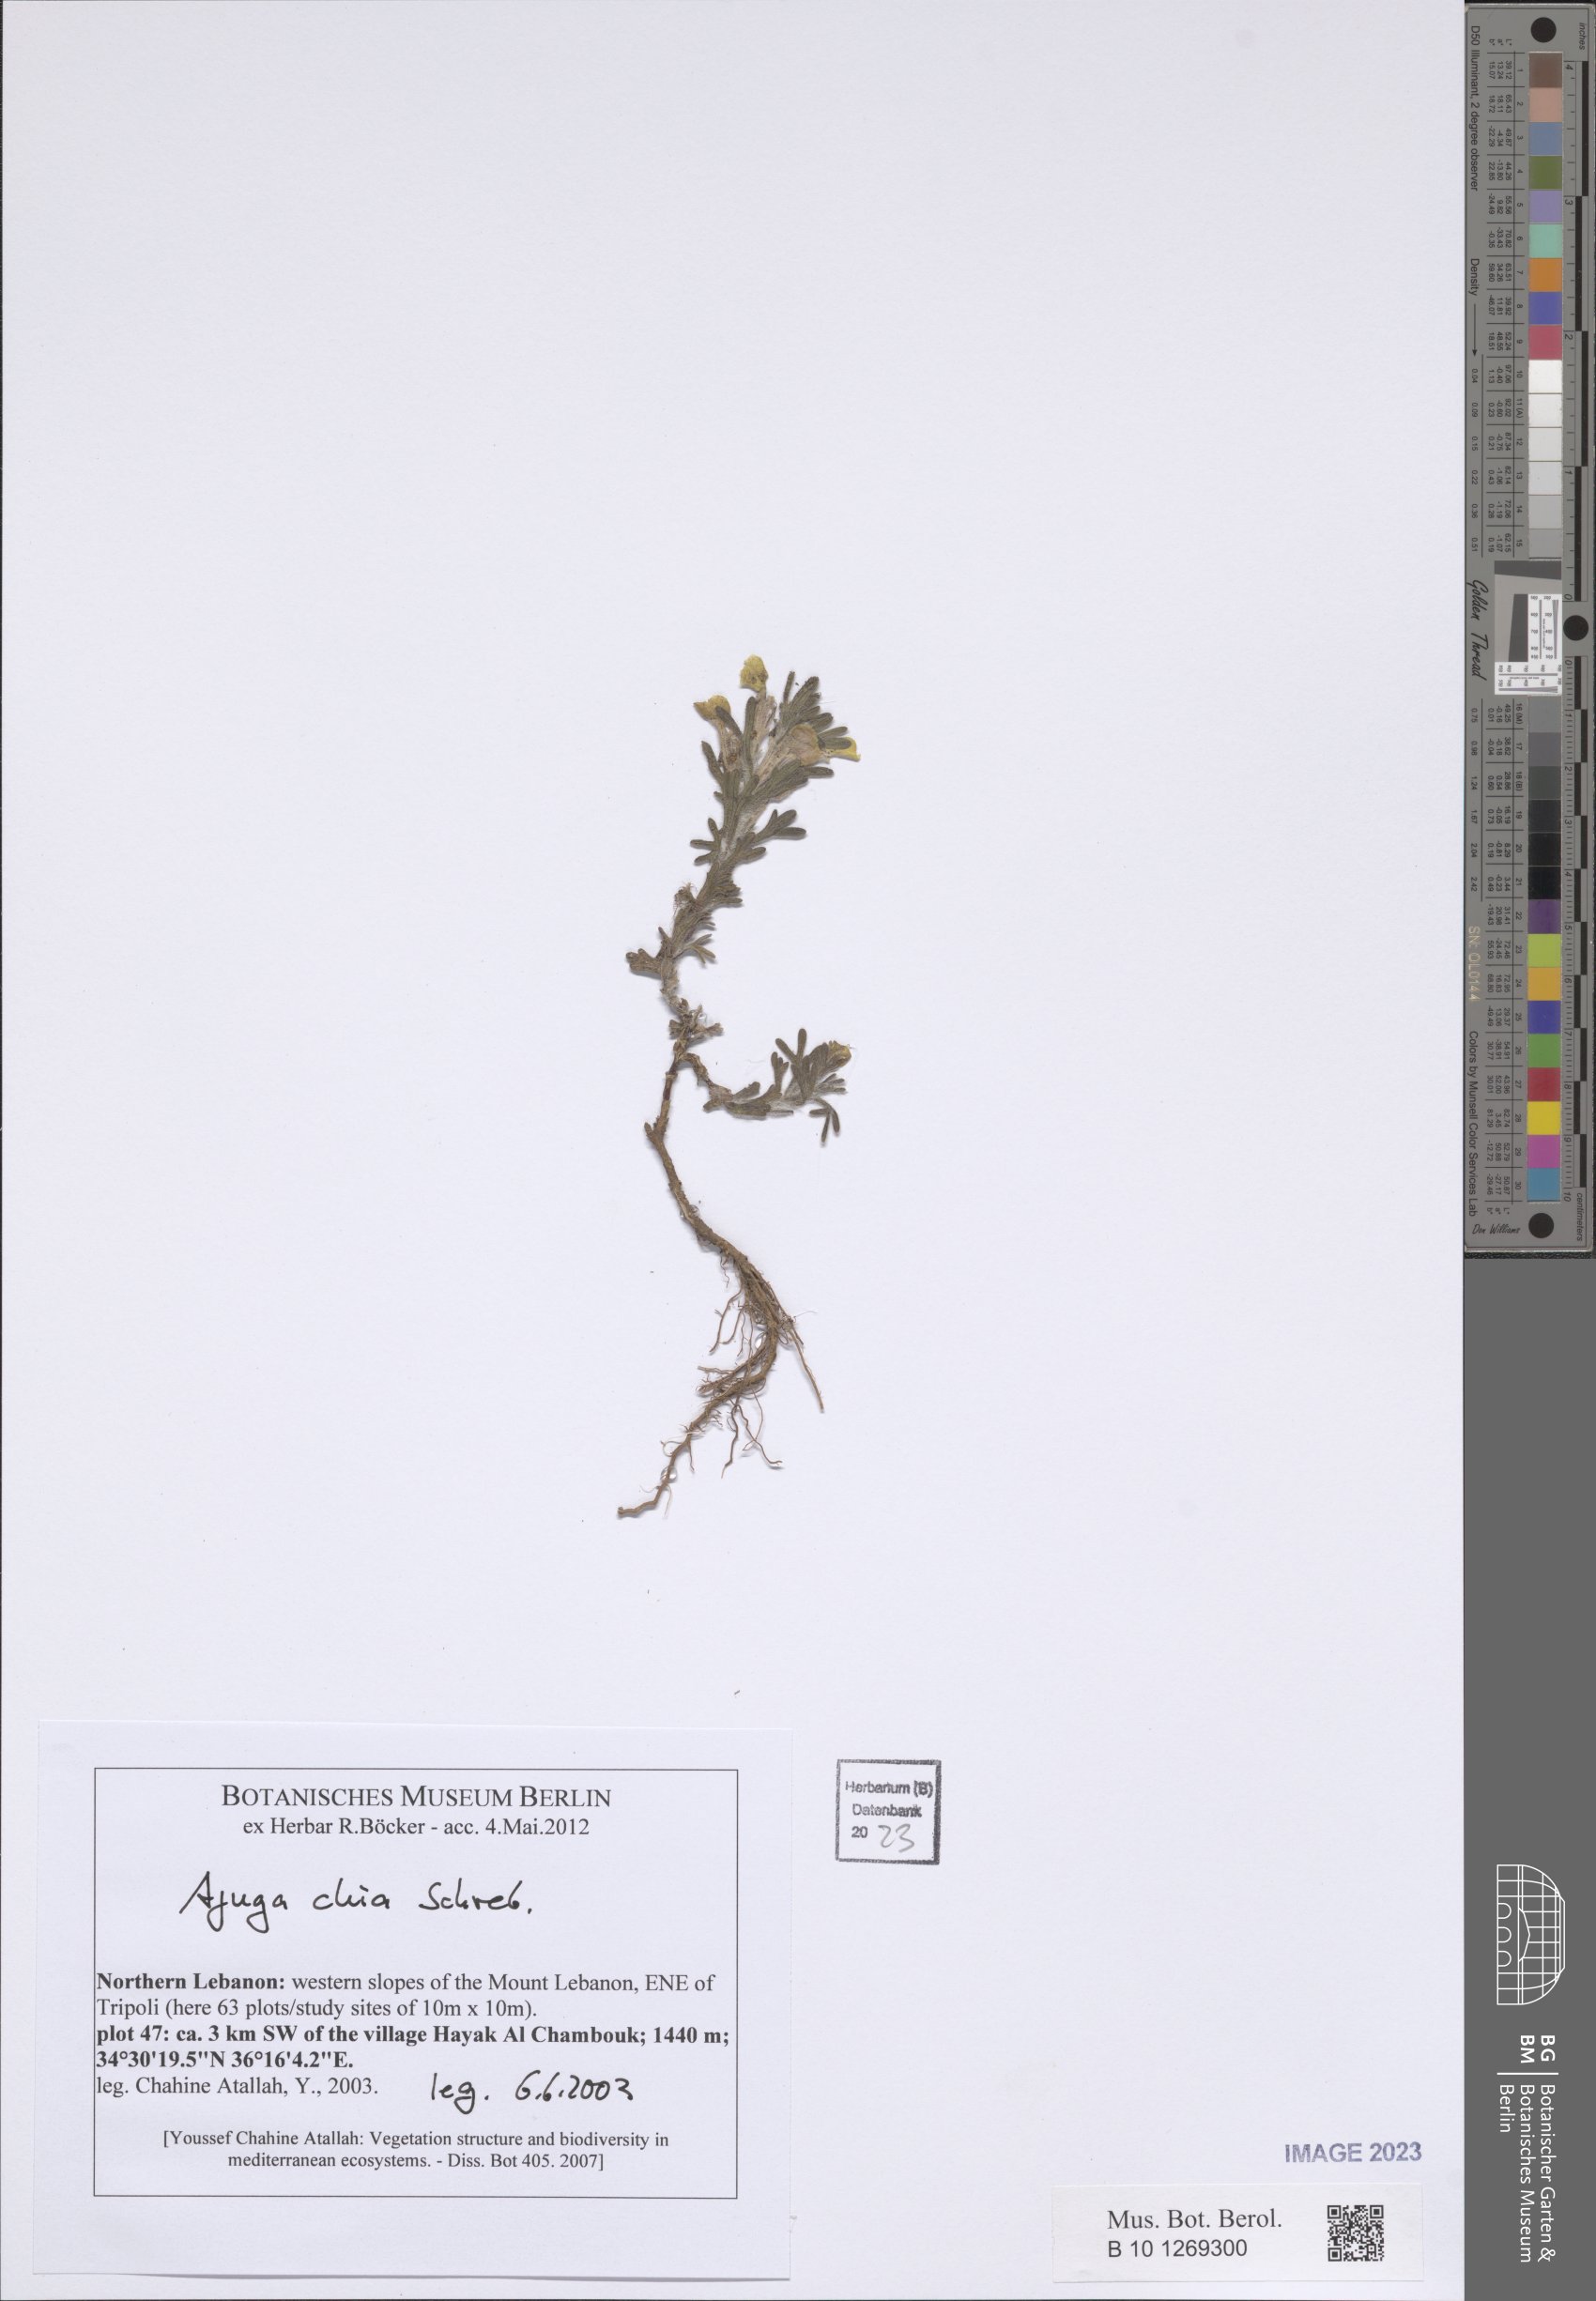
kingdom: Plantae
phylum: Tracheophyta
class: Magnoliopsida
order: Lamiales
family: Lamiaceae
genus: Ajuga
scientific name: Ajuga chamaepitys
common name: Ground-pine
